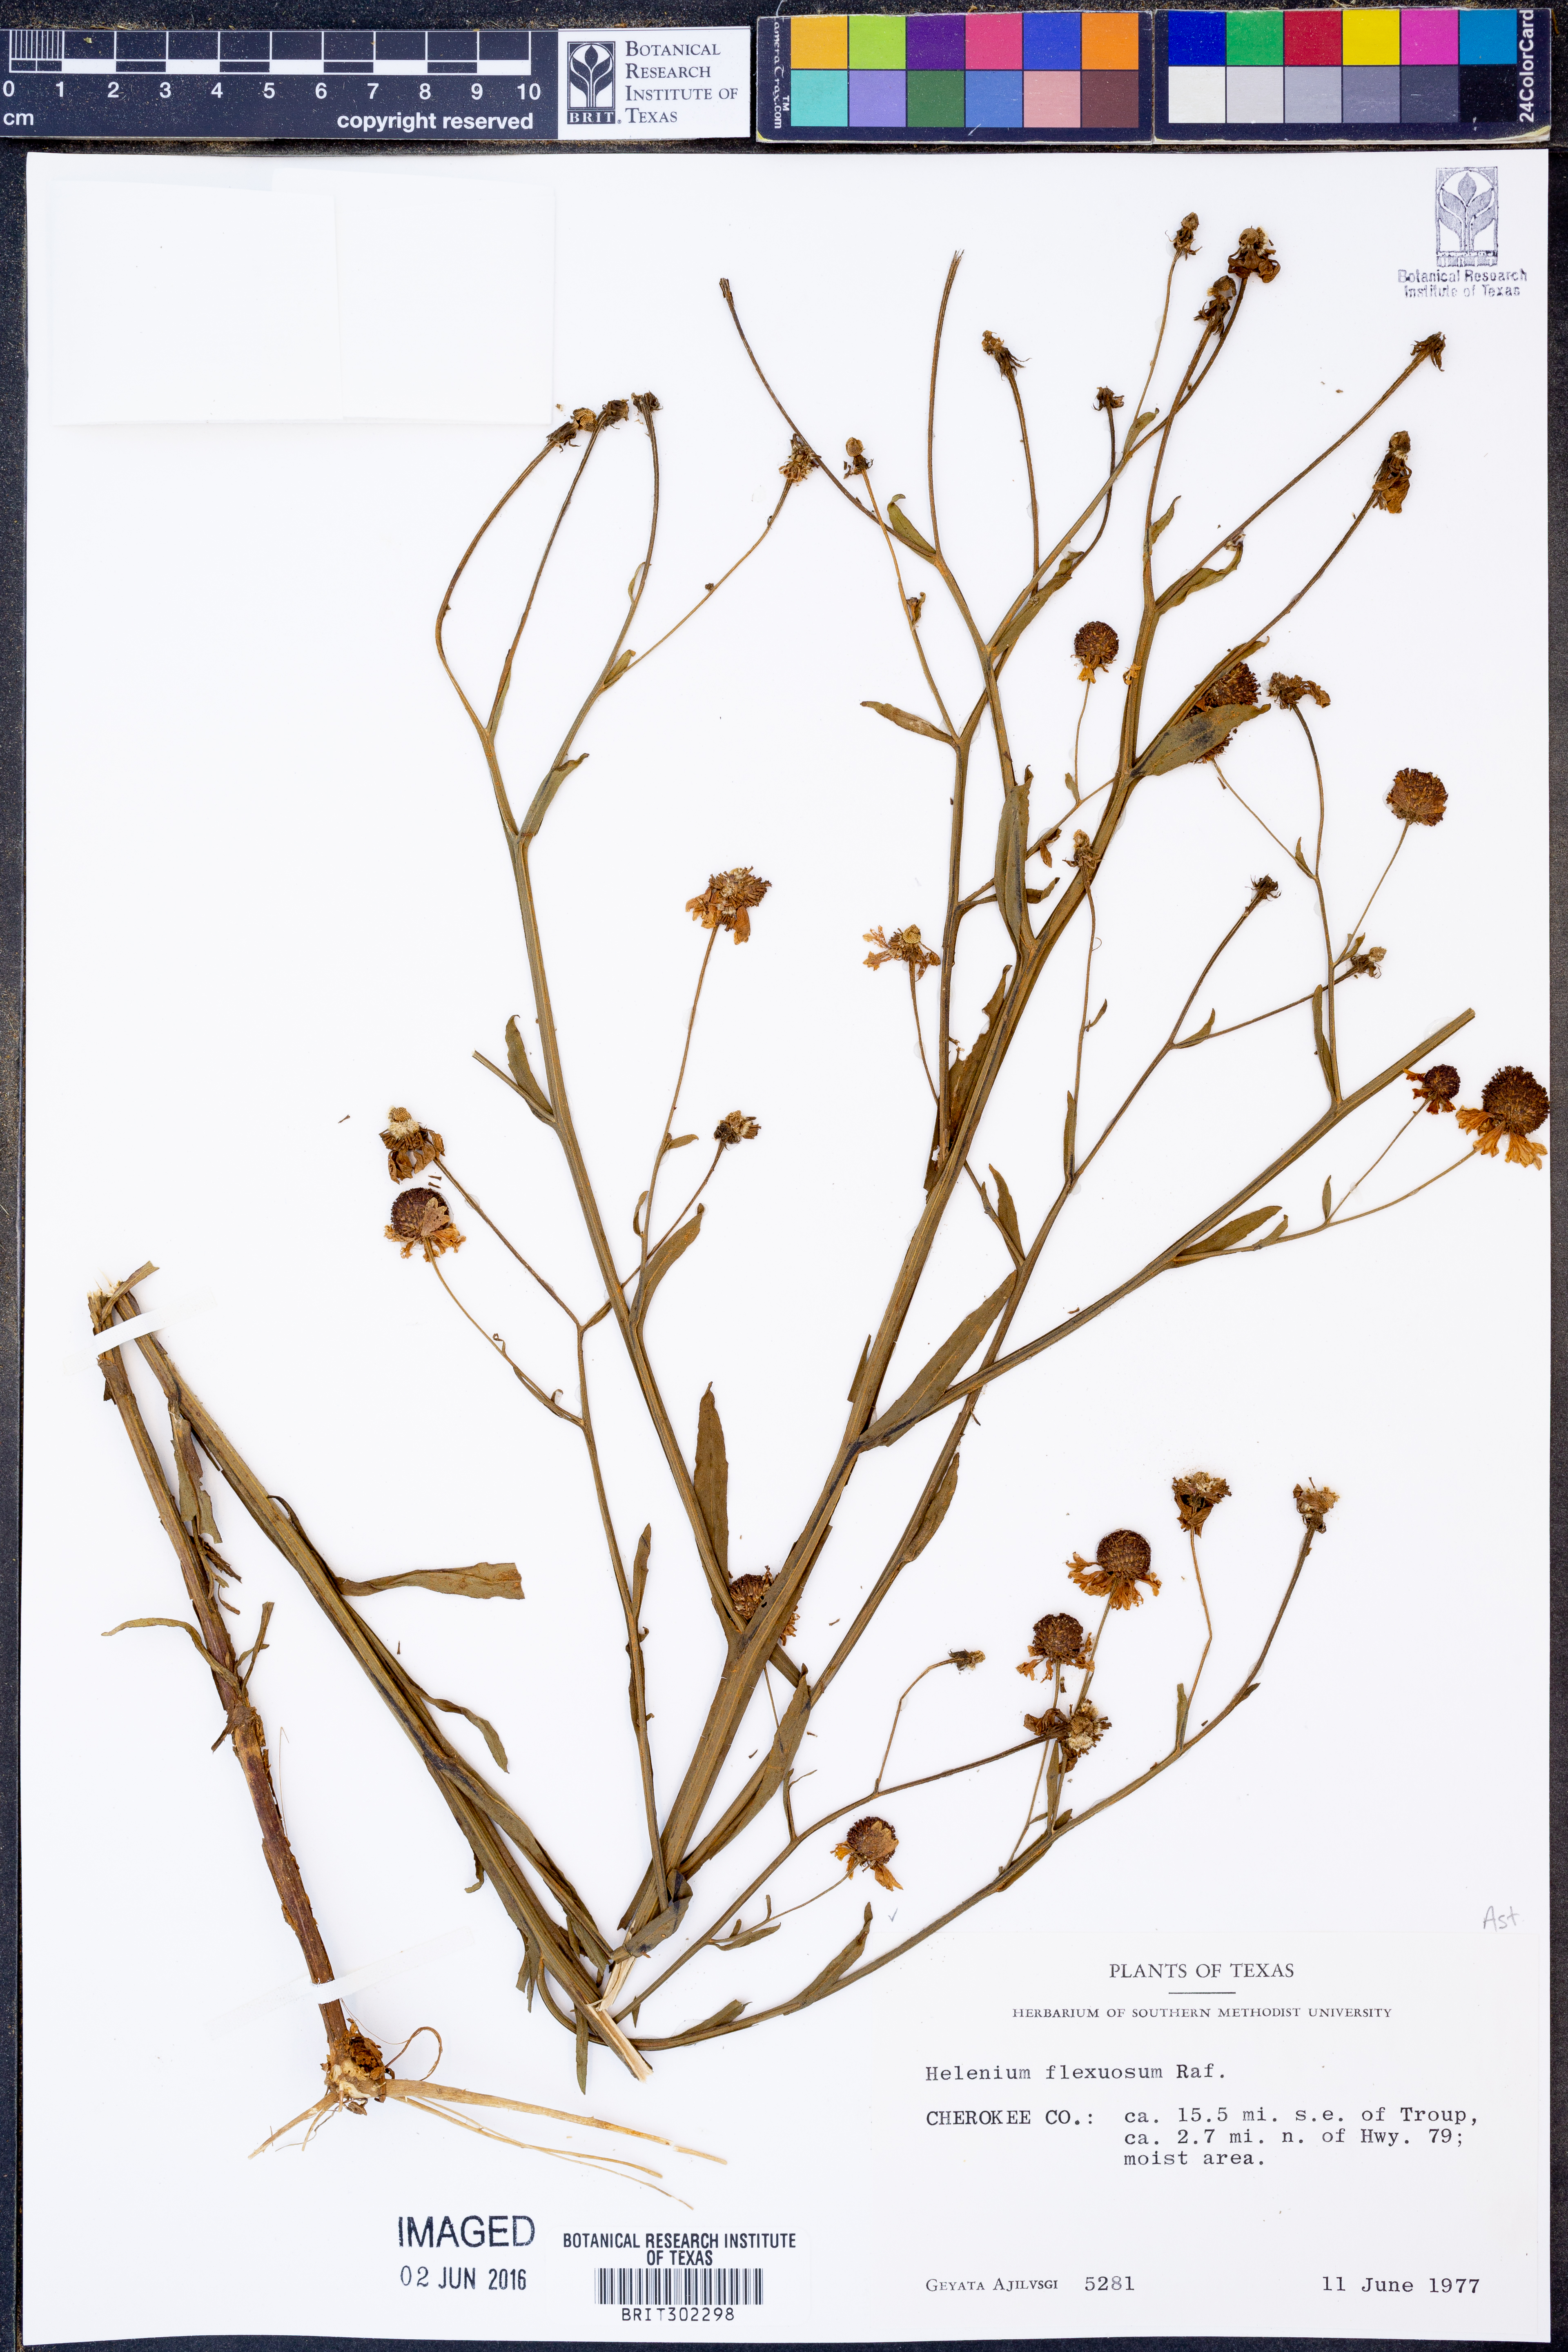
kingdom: Plantae
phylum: Tracheophyta
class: Magnoliopsida
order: Asterales
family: Asteraceae
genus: Helenium
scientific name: Helenium flexuosum
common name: Naked-flowered sneezeweed
